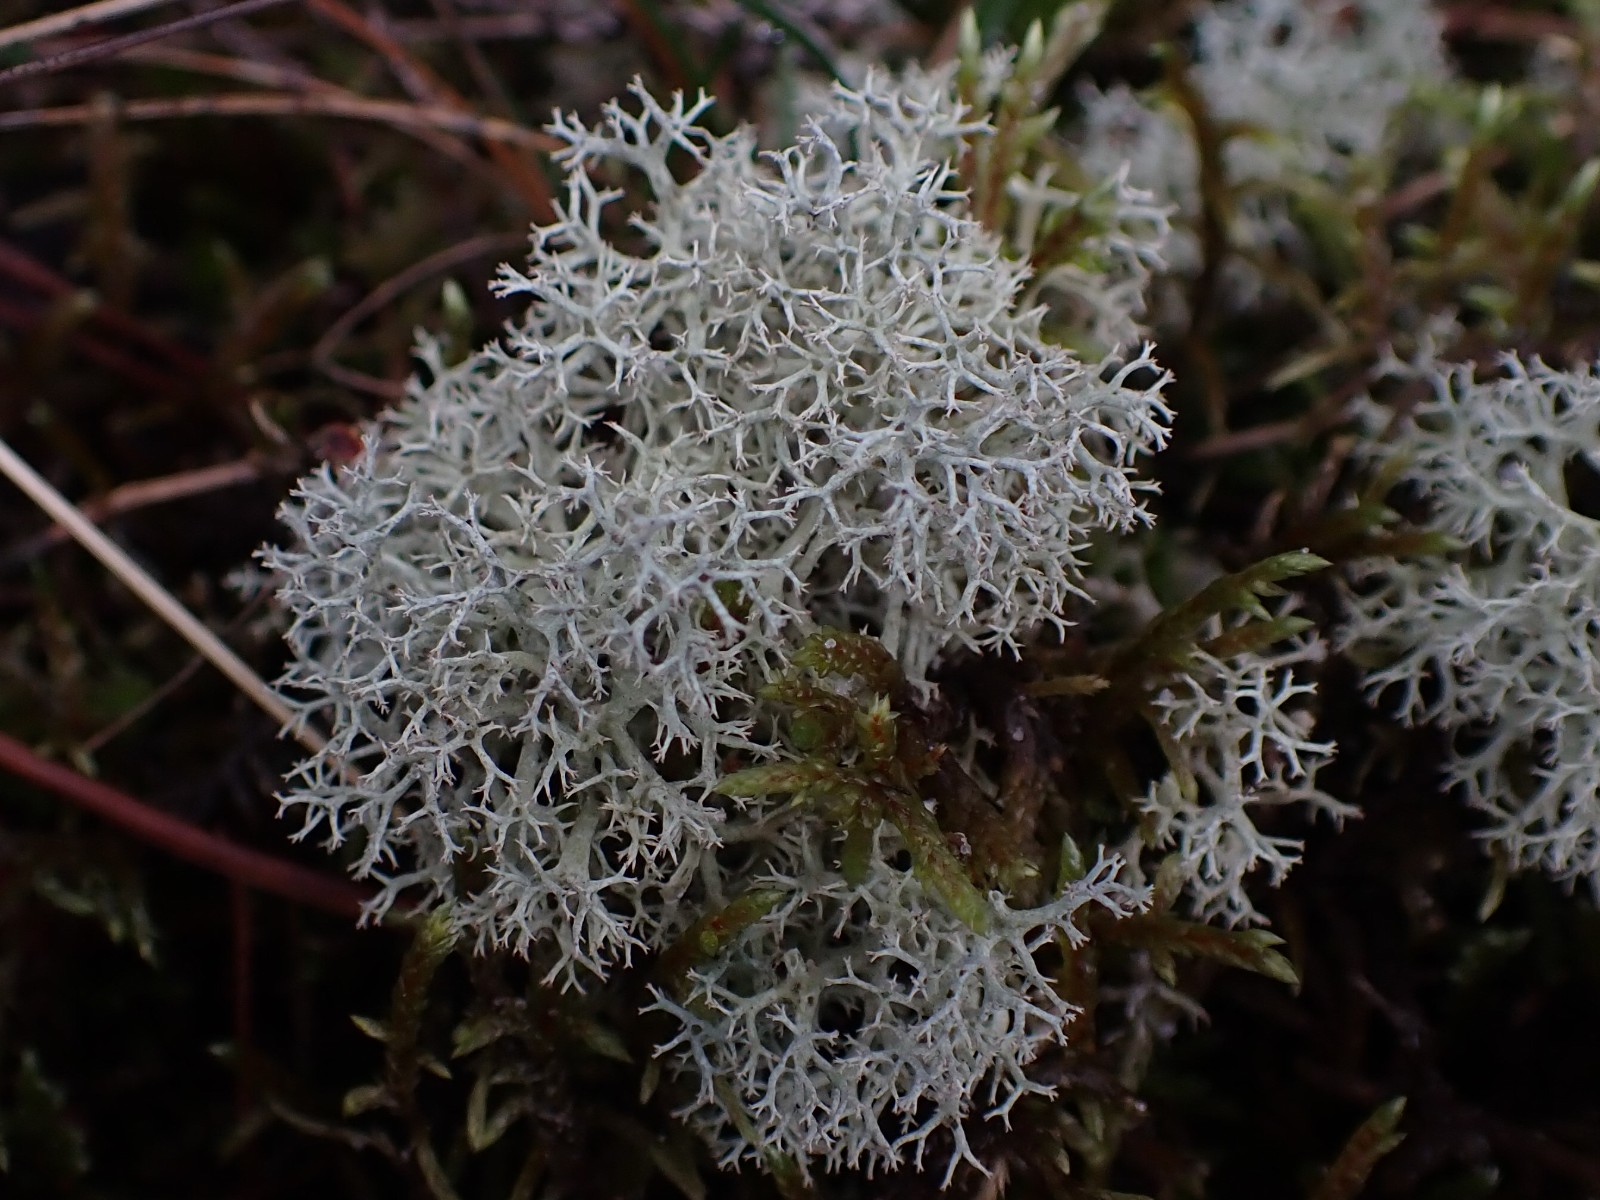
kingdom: Fungi
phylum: Ascomycota
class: Lecanoromycetes
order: Lecanorales
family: Cladoniaceae
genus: Cladonia
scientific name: Cladonia portentosa
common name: hede-rensdyrlav
